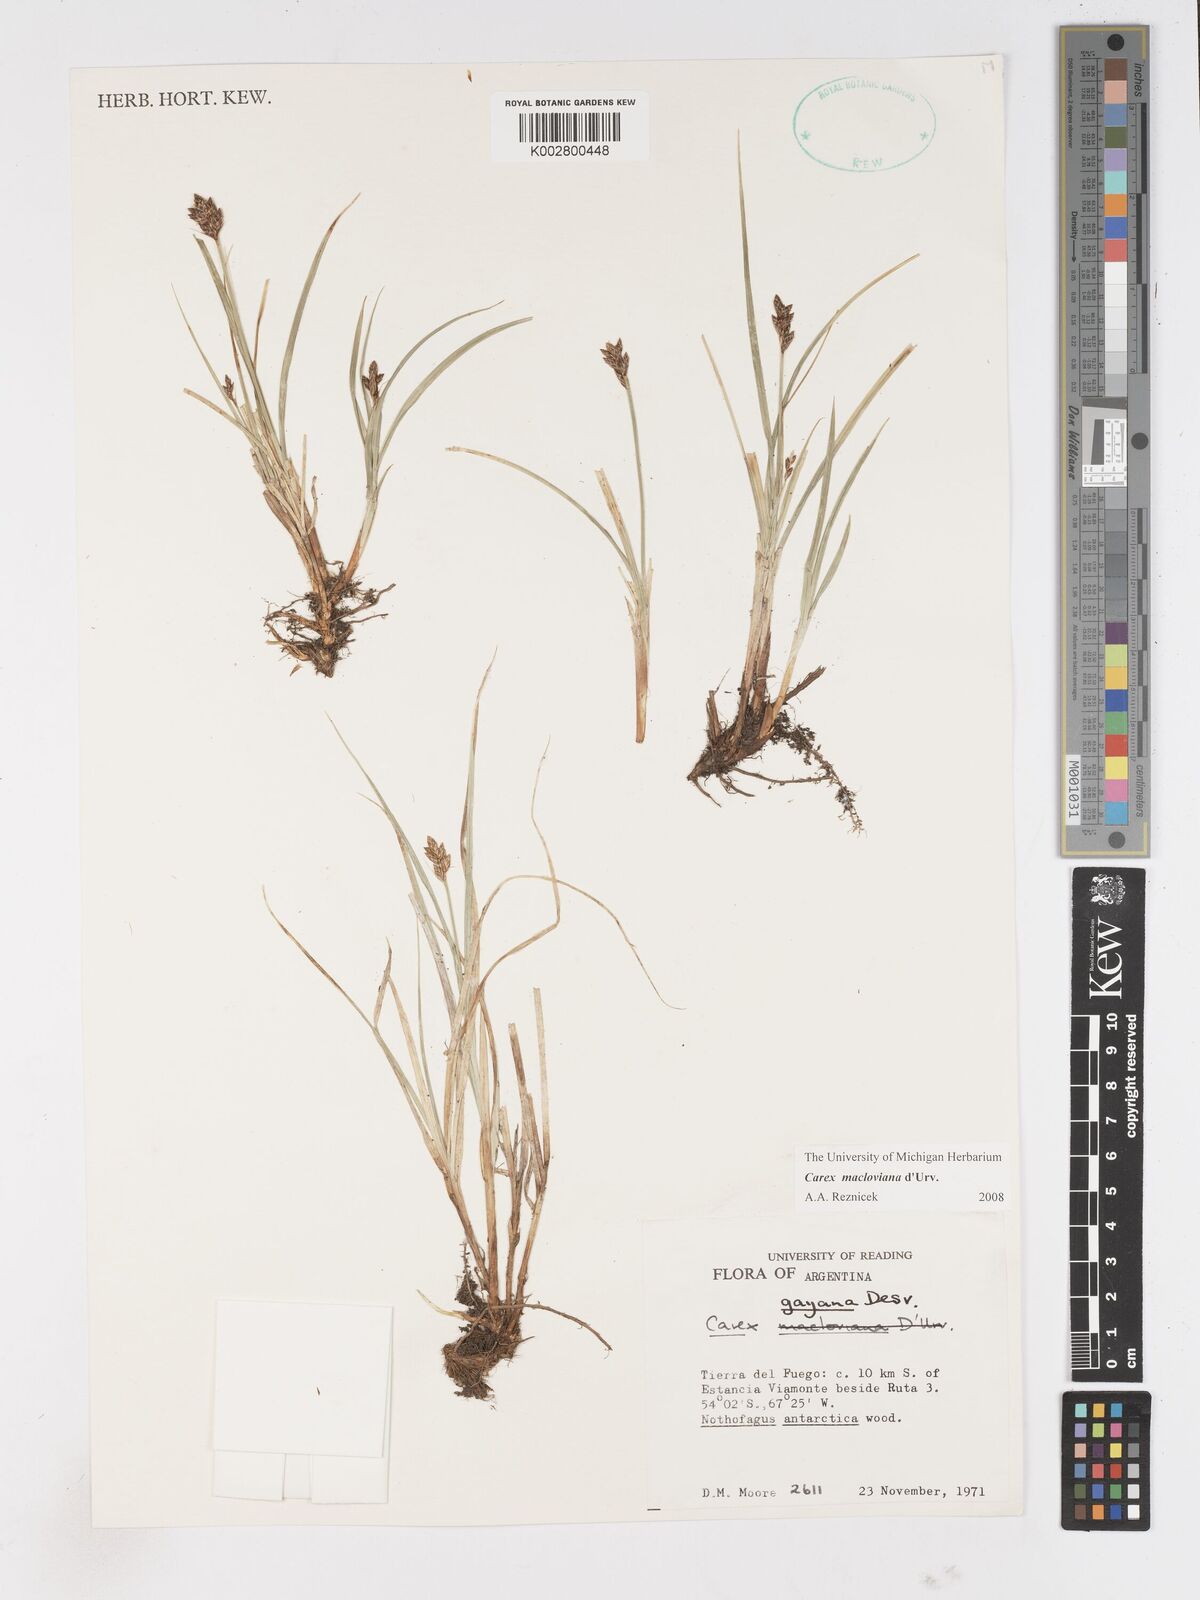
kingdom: Plantae
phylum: Tracheophyta
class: Liliopsida
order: Poales
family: Cyperaceae
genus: Carex
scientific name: Carex subfusca
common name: Brown sedge
